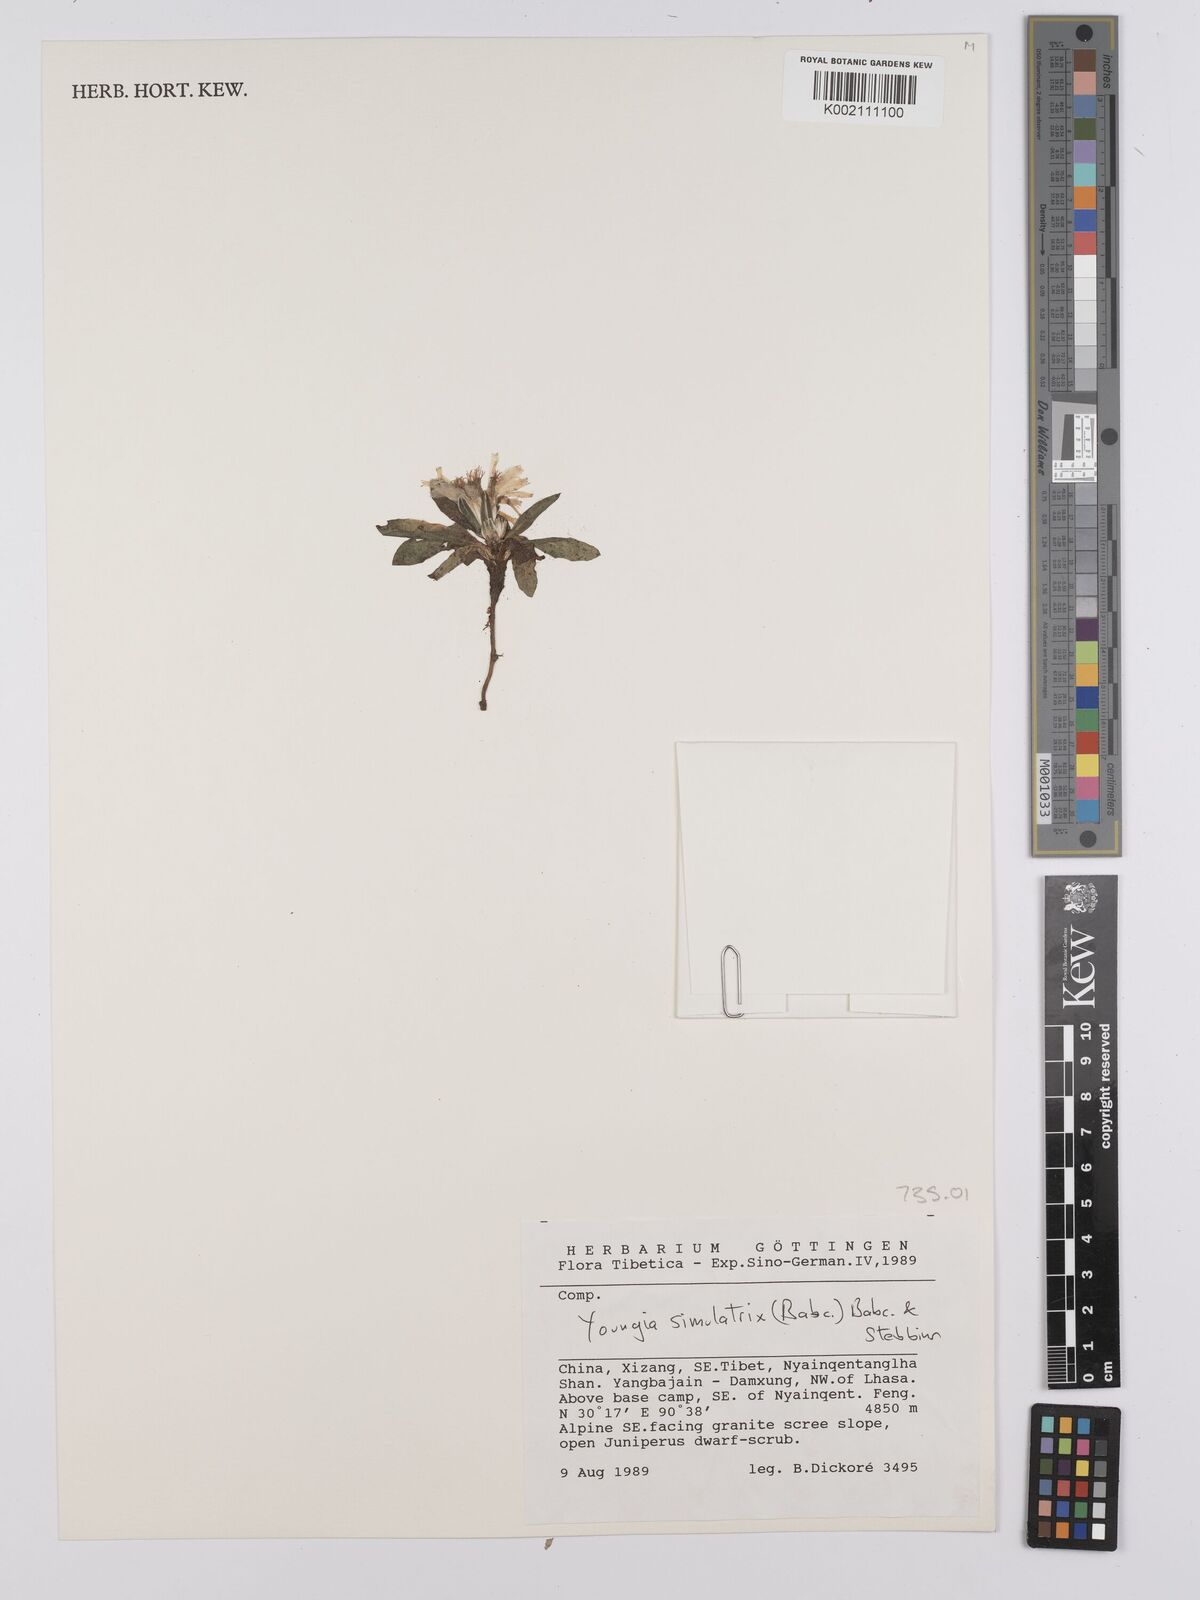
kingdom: Plantae
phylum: Tracheophyta
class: Magnoliopsida
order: Asterales
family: Asteraceae
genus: Youngia
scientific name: Youngia simulatrix
